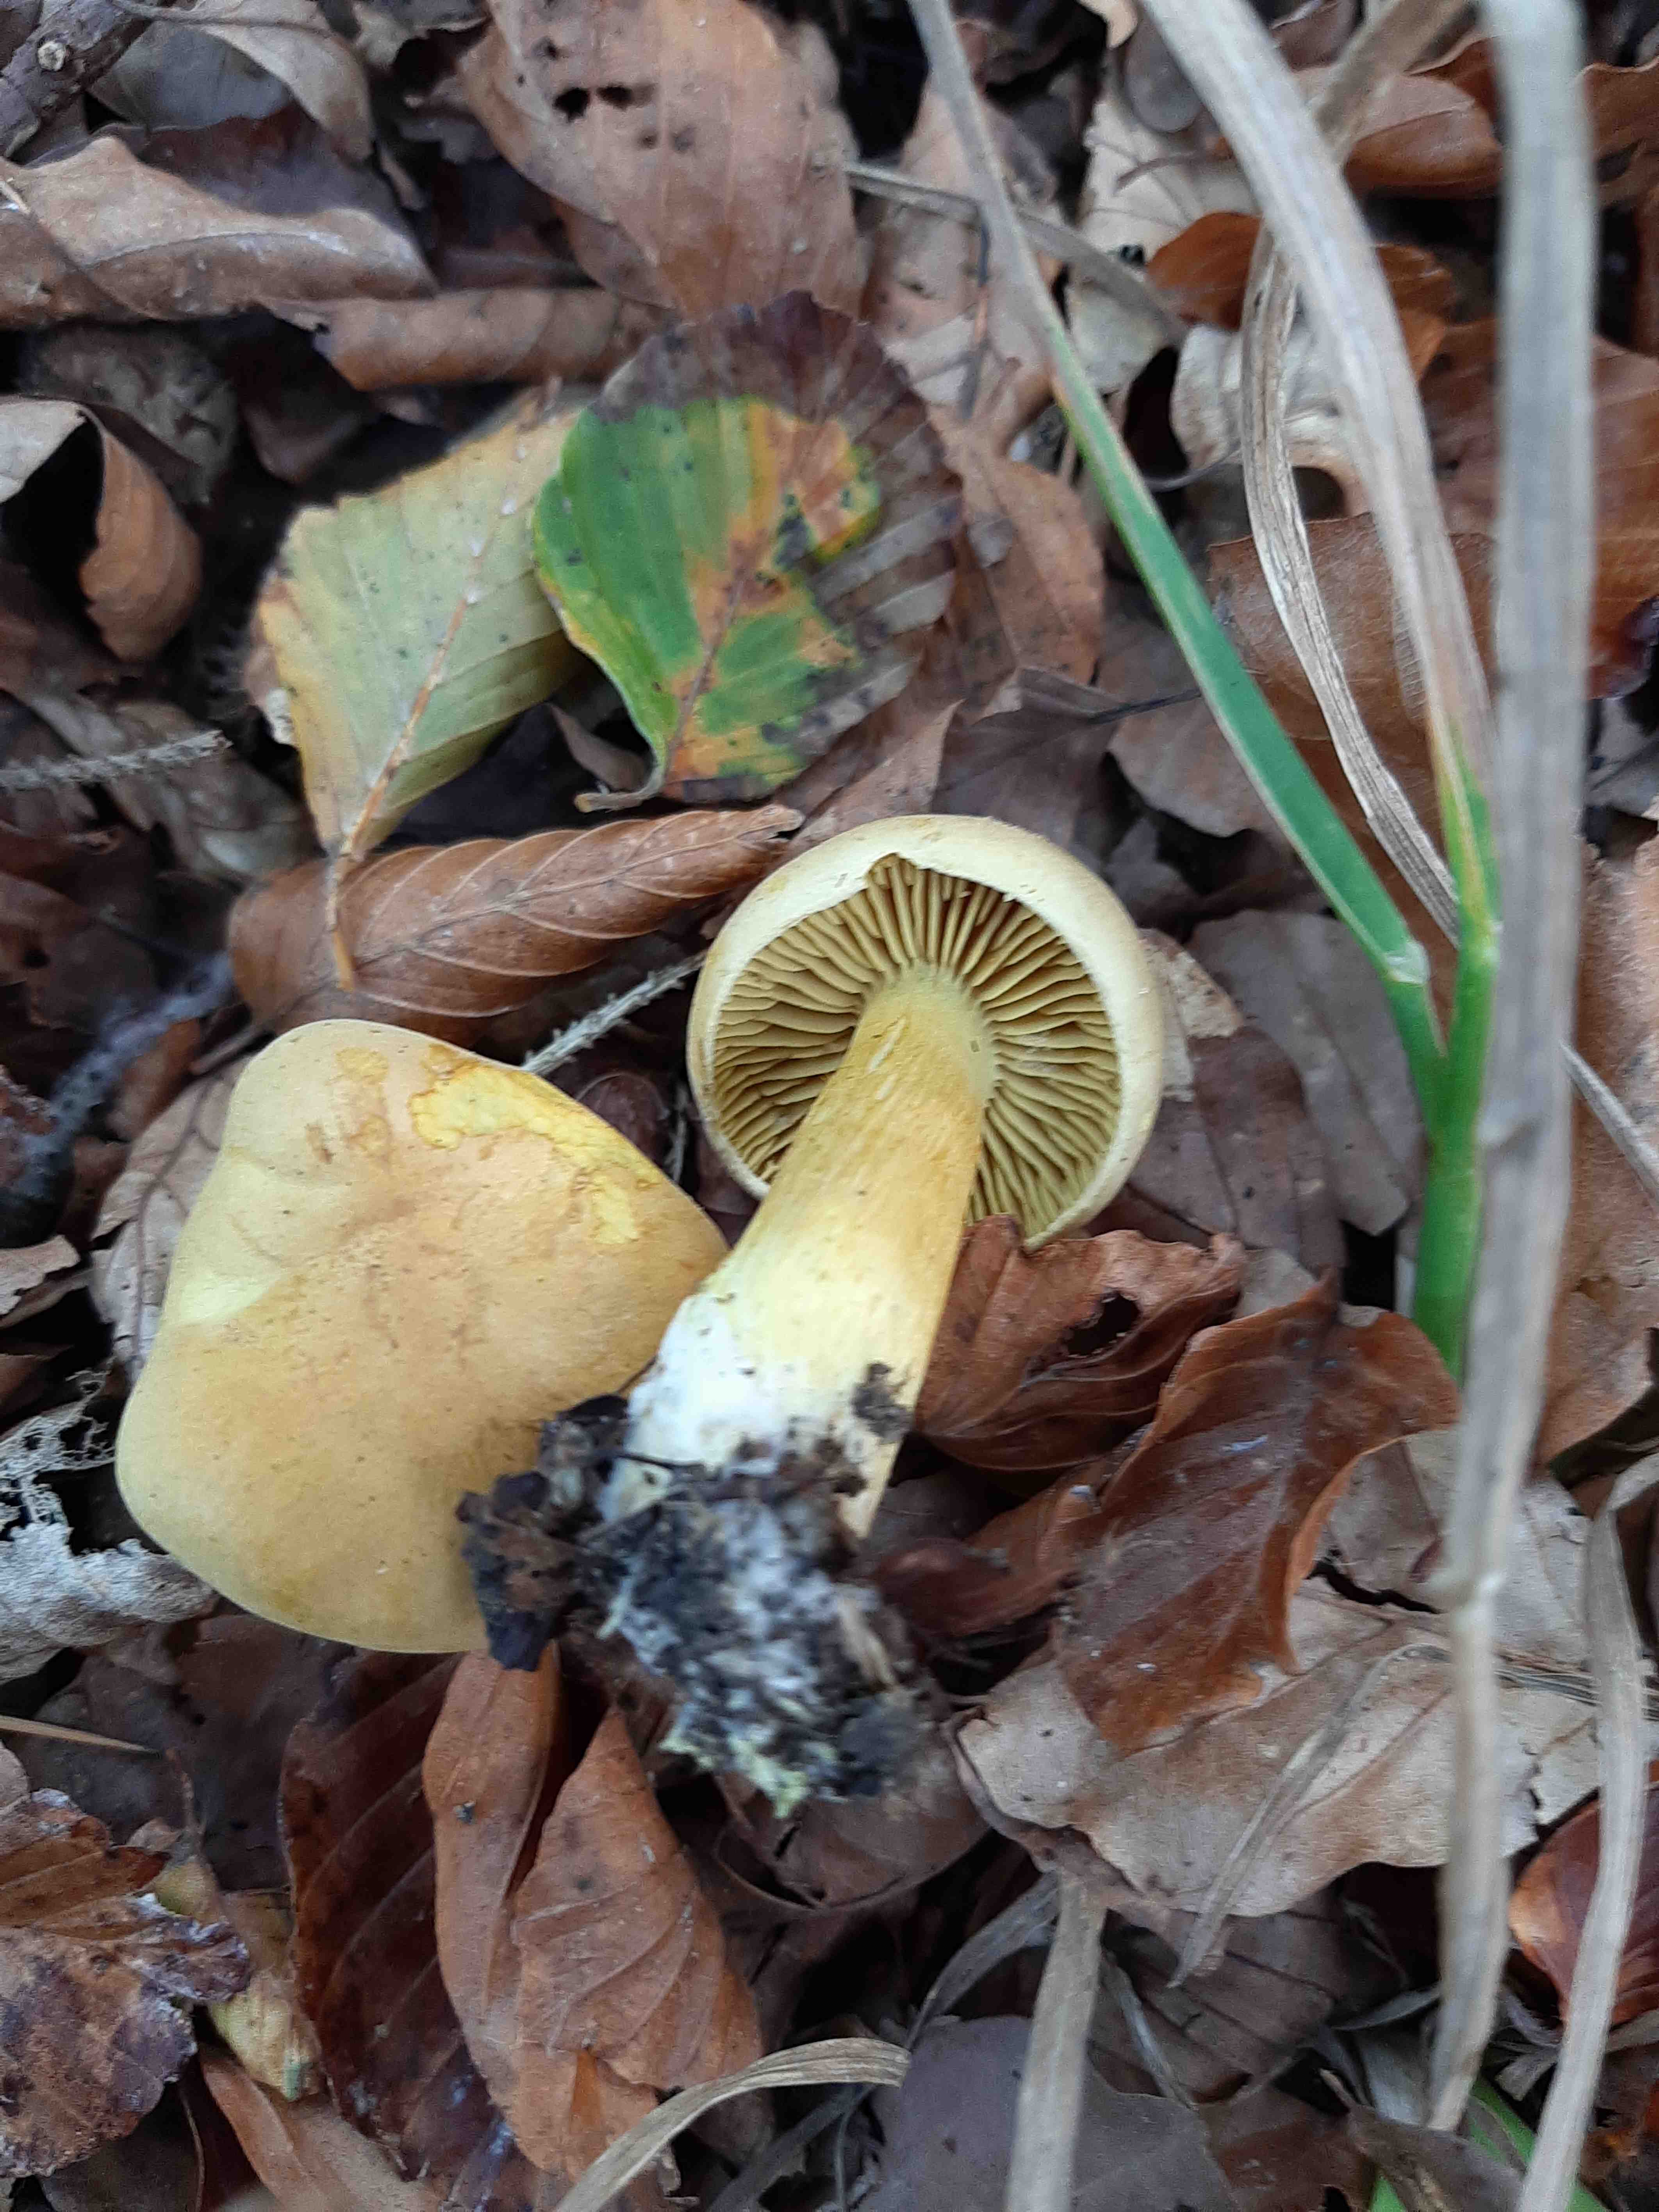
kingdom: Fungi
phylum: Basidiomycota
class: Agaricomycetes
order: Agaricales
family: Tricholomataceae
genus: Tricholoma
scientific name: Tricholoma sulphureum
